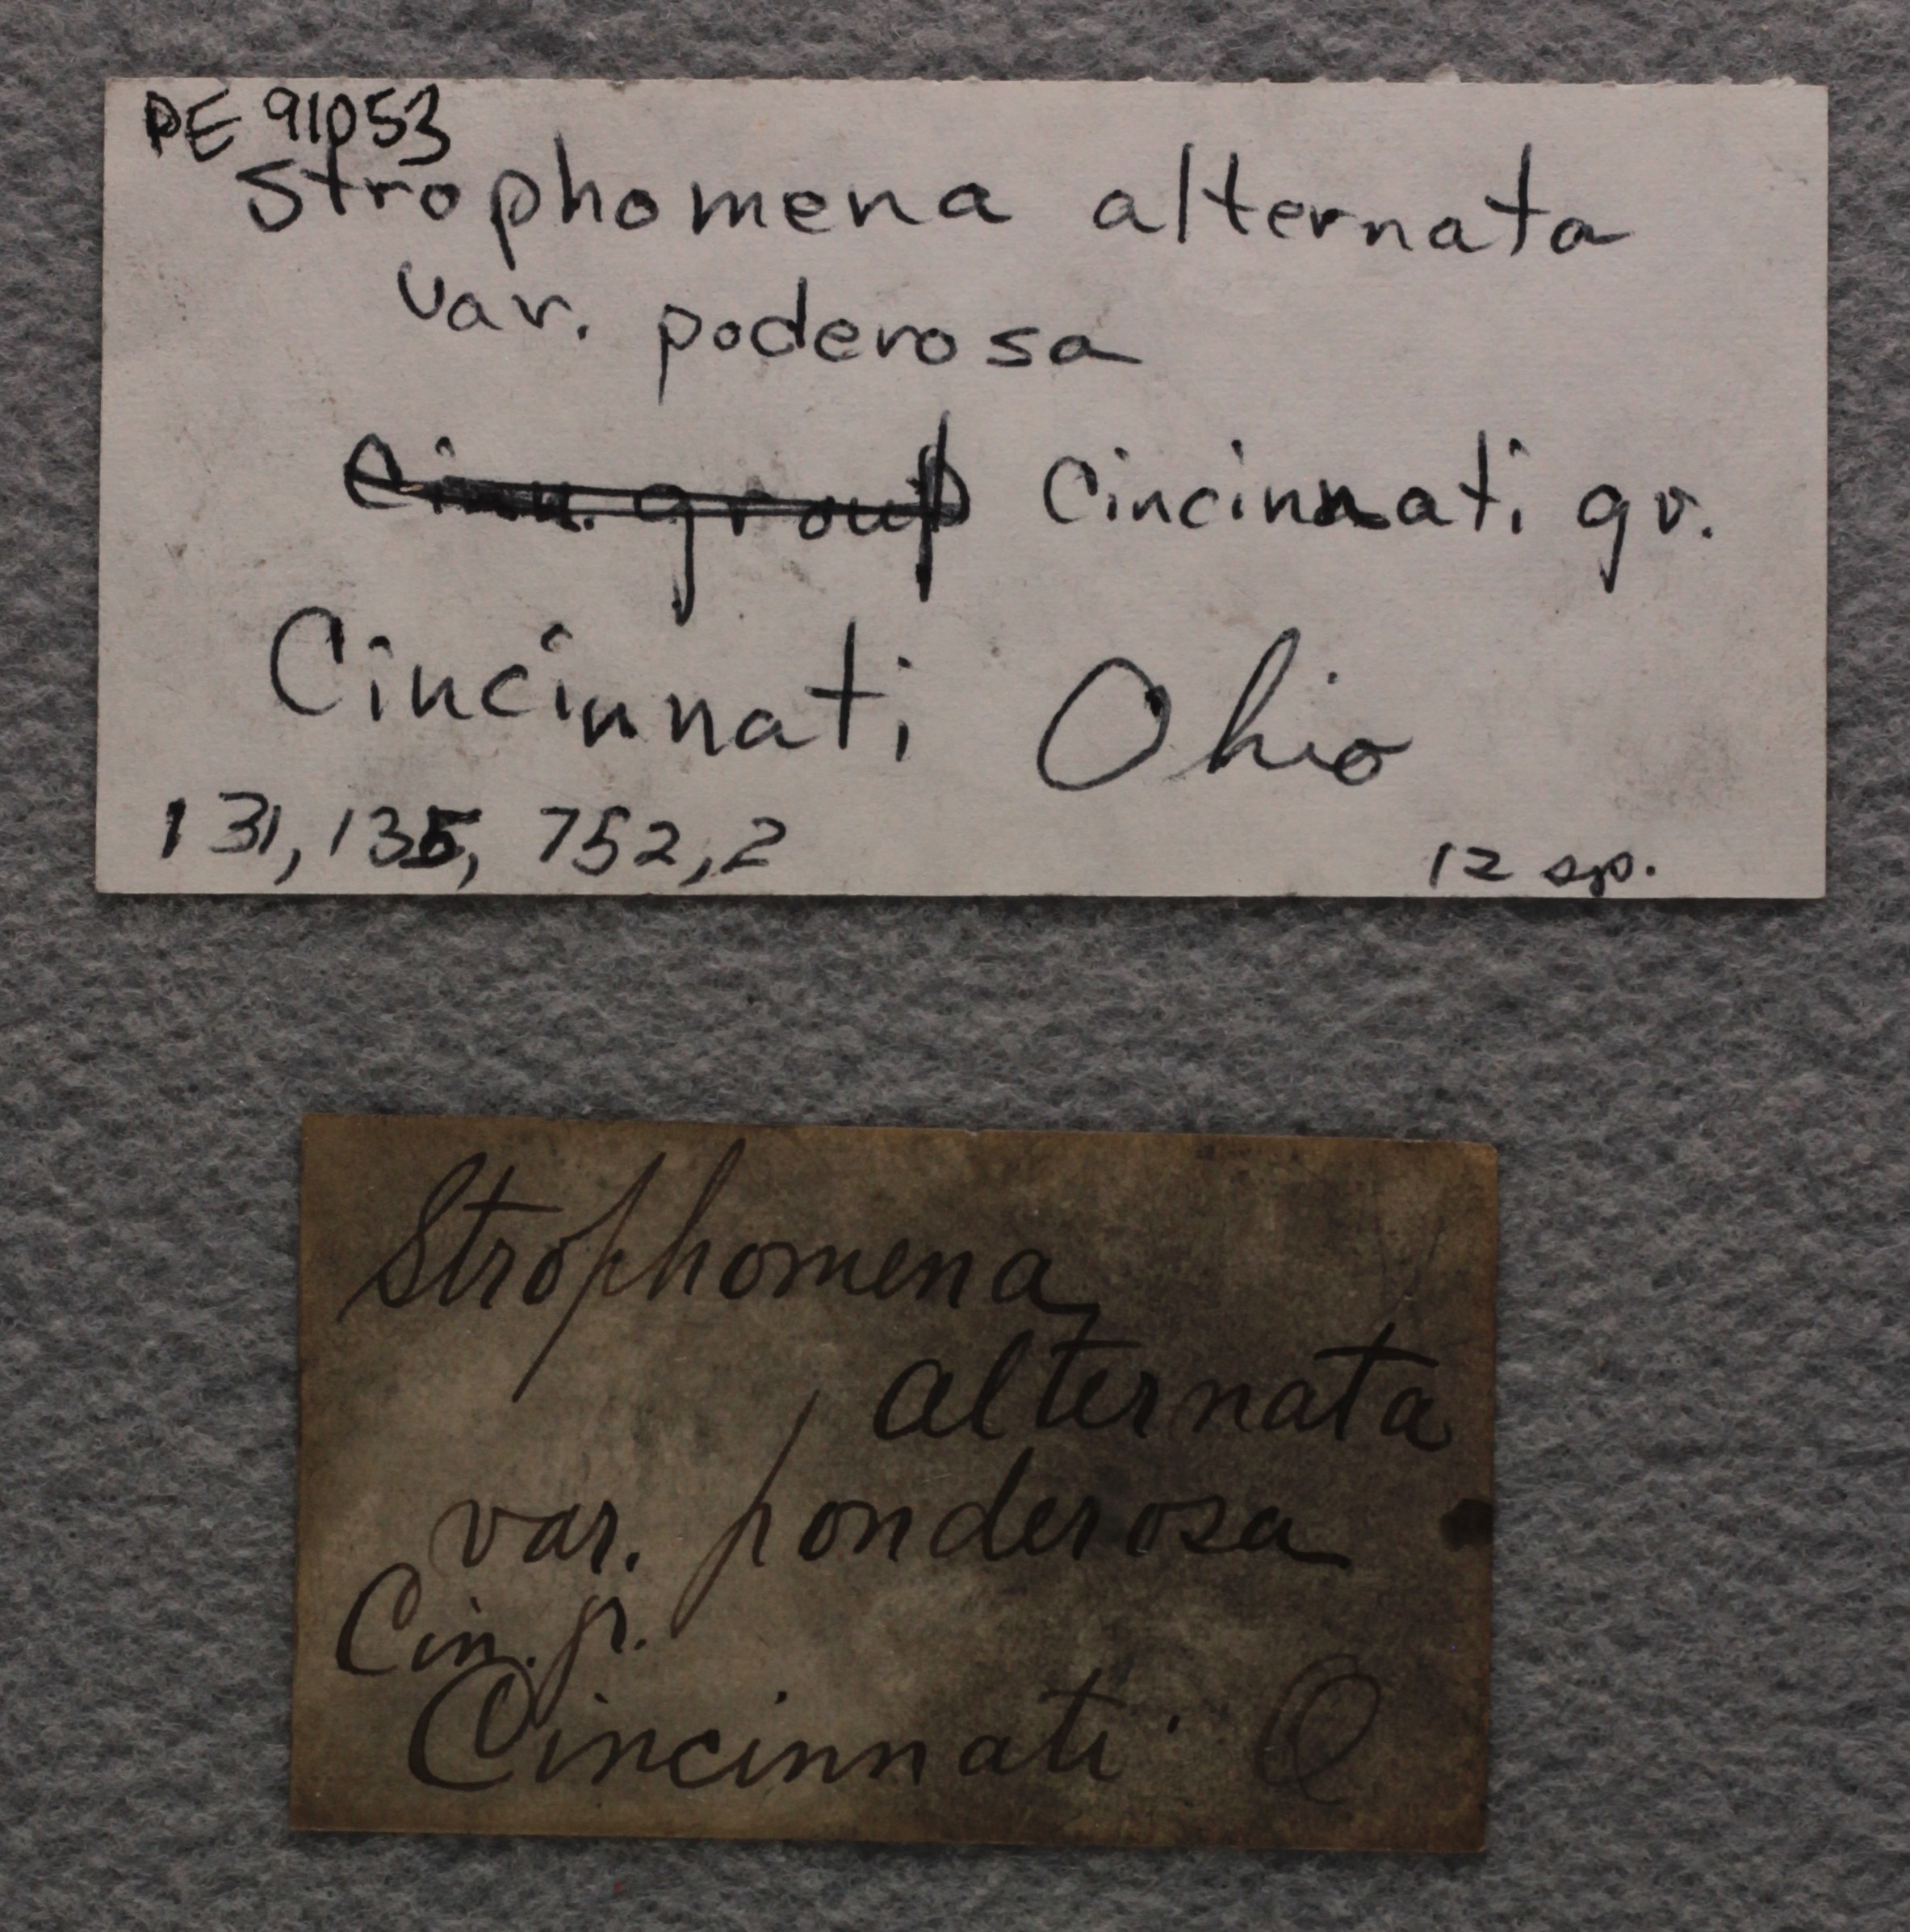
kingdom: Animalia
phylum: Brachiopoda
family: Strophomenidae
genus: Rafinesquina
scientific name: Rafinesquina Leptaena alternata
